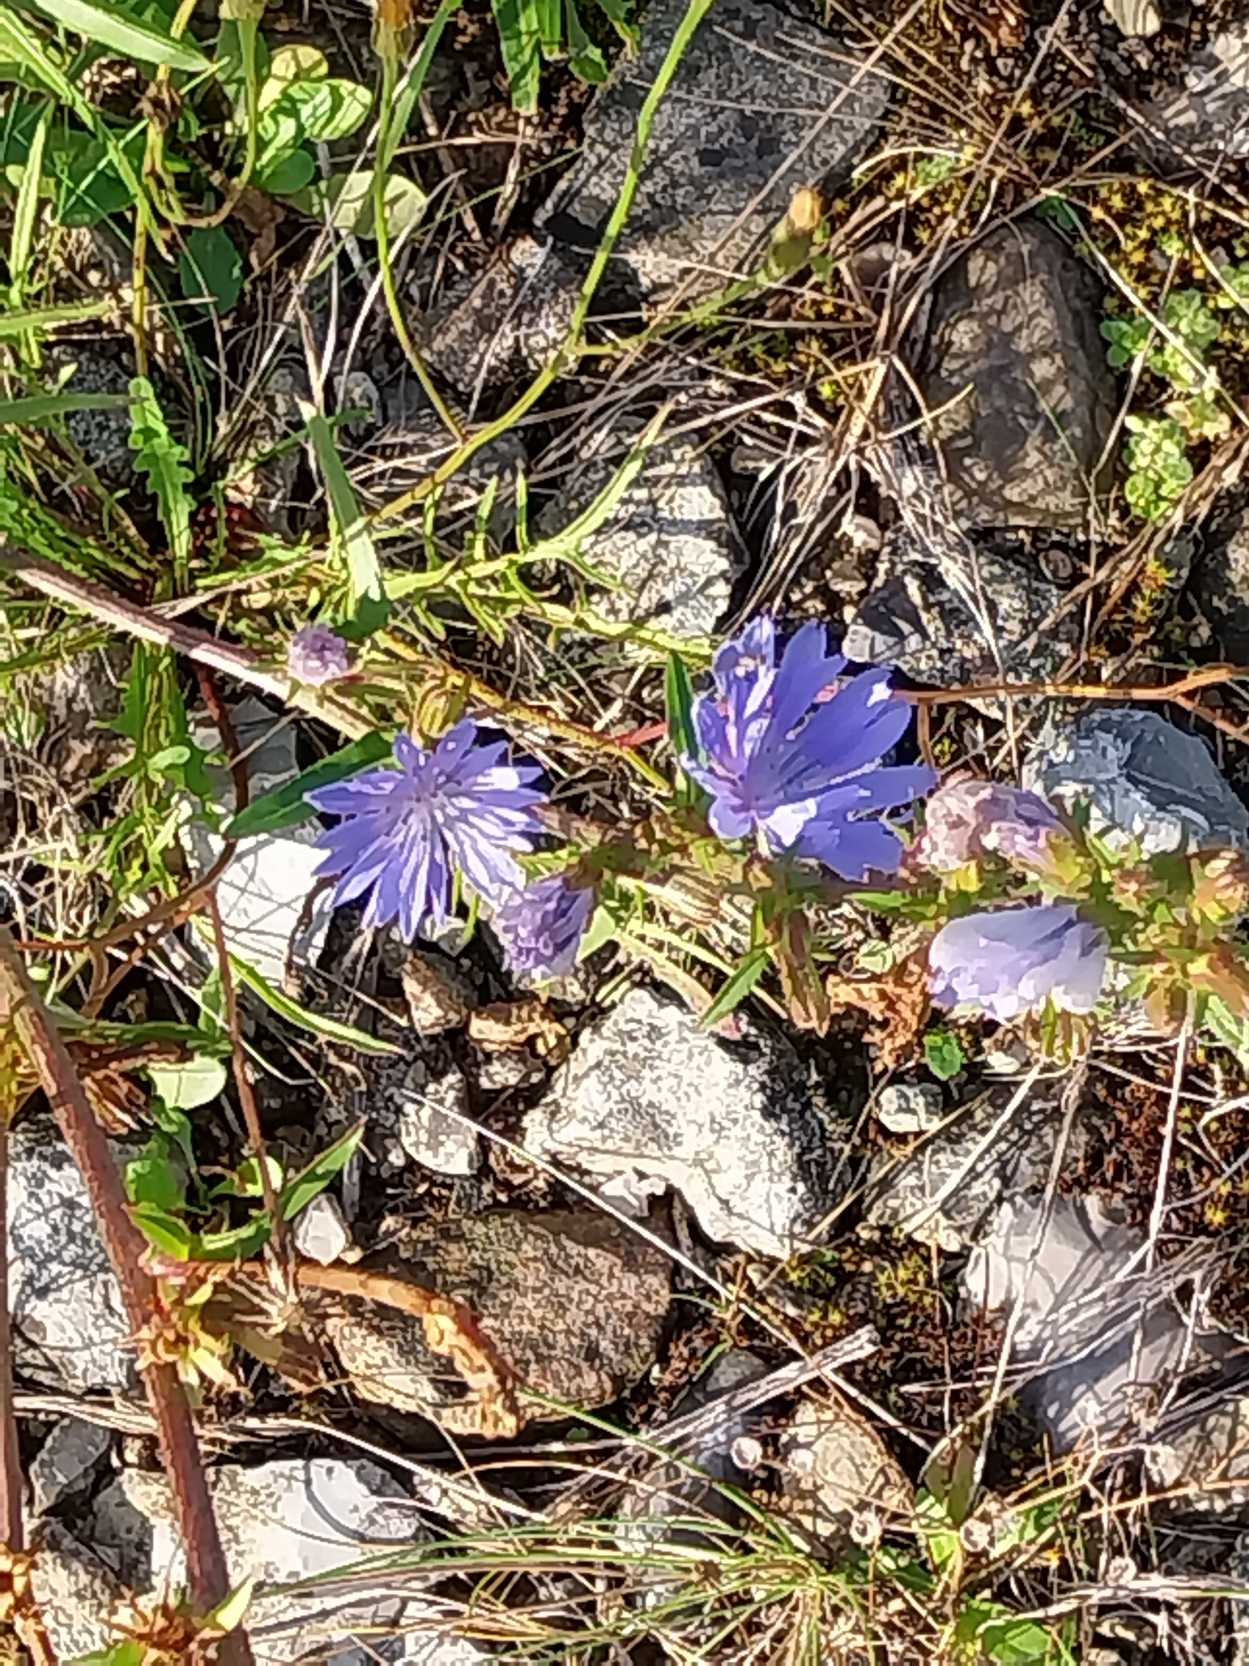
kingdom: Plantae
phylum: Tracheophyta
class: Magnoliopsida
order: Asterales
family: Asteraceae
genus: Cichorium
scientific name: Cichorium intybus
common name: Cikorie
